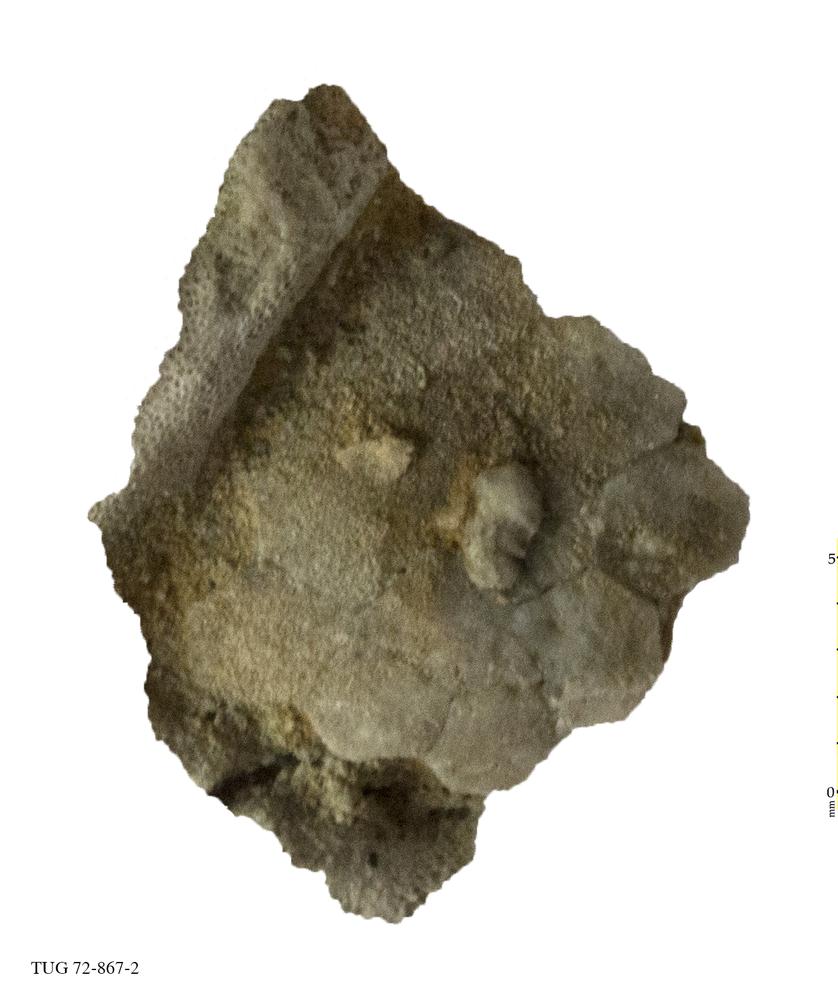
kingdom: Animalia
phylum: Echinodermata
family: Echinosphaeritidae
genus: Echinosphaerites
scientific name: Echinosphaerites
